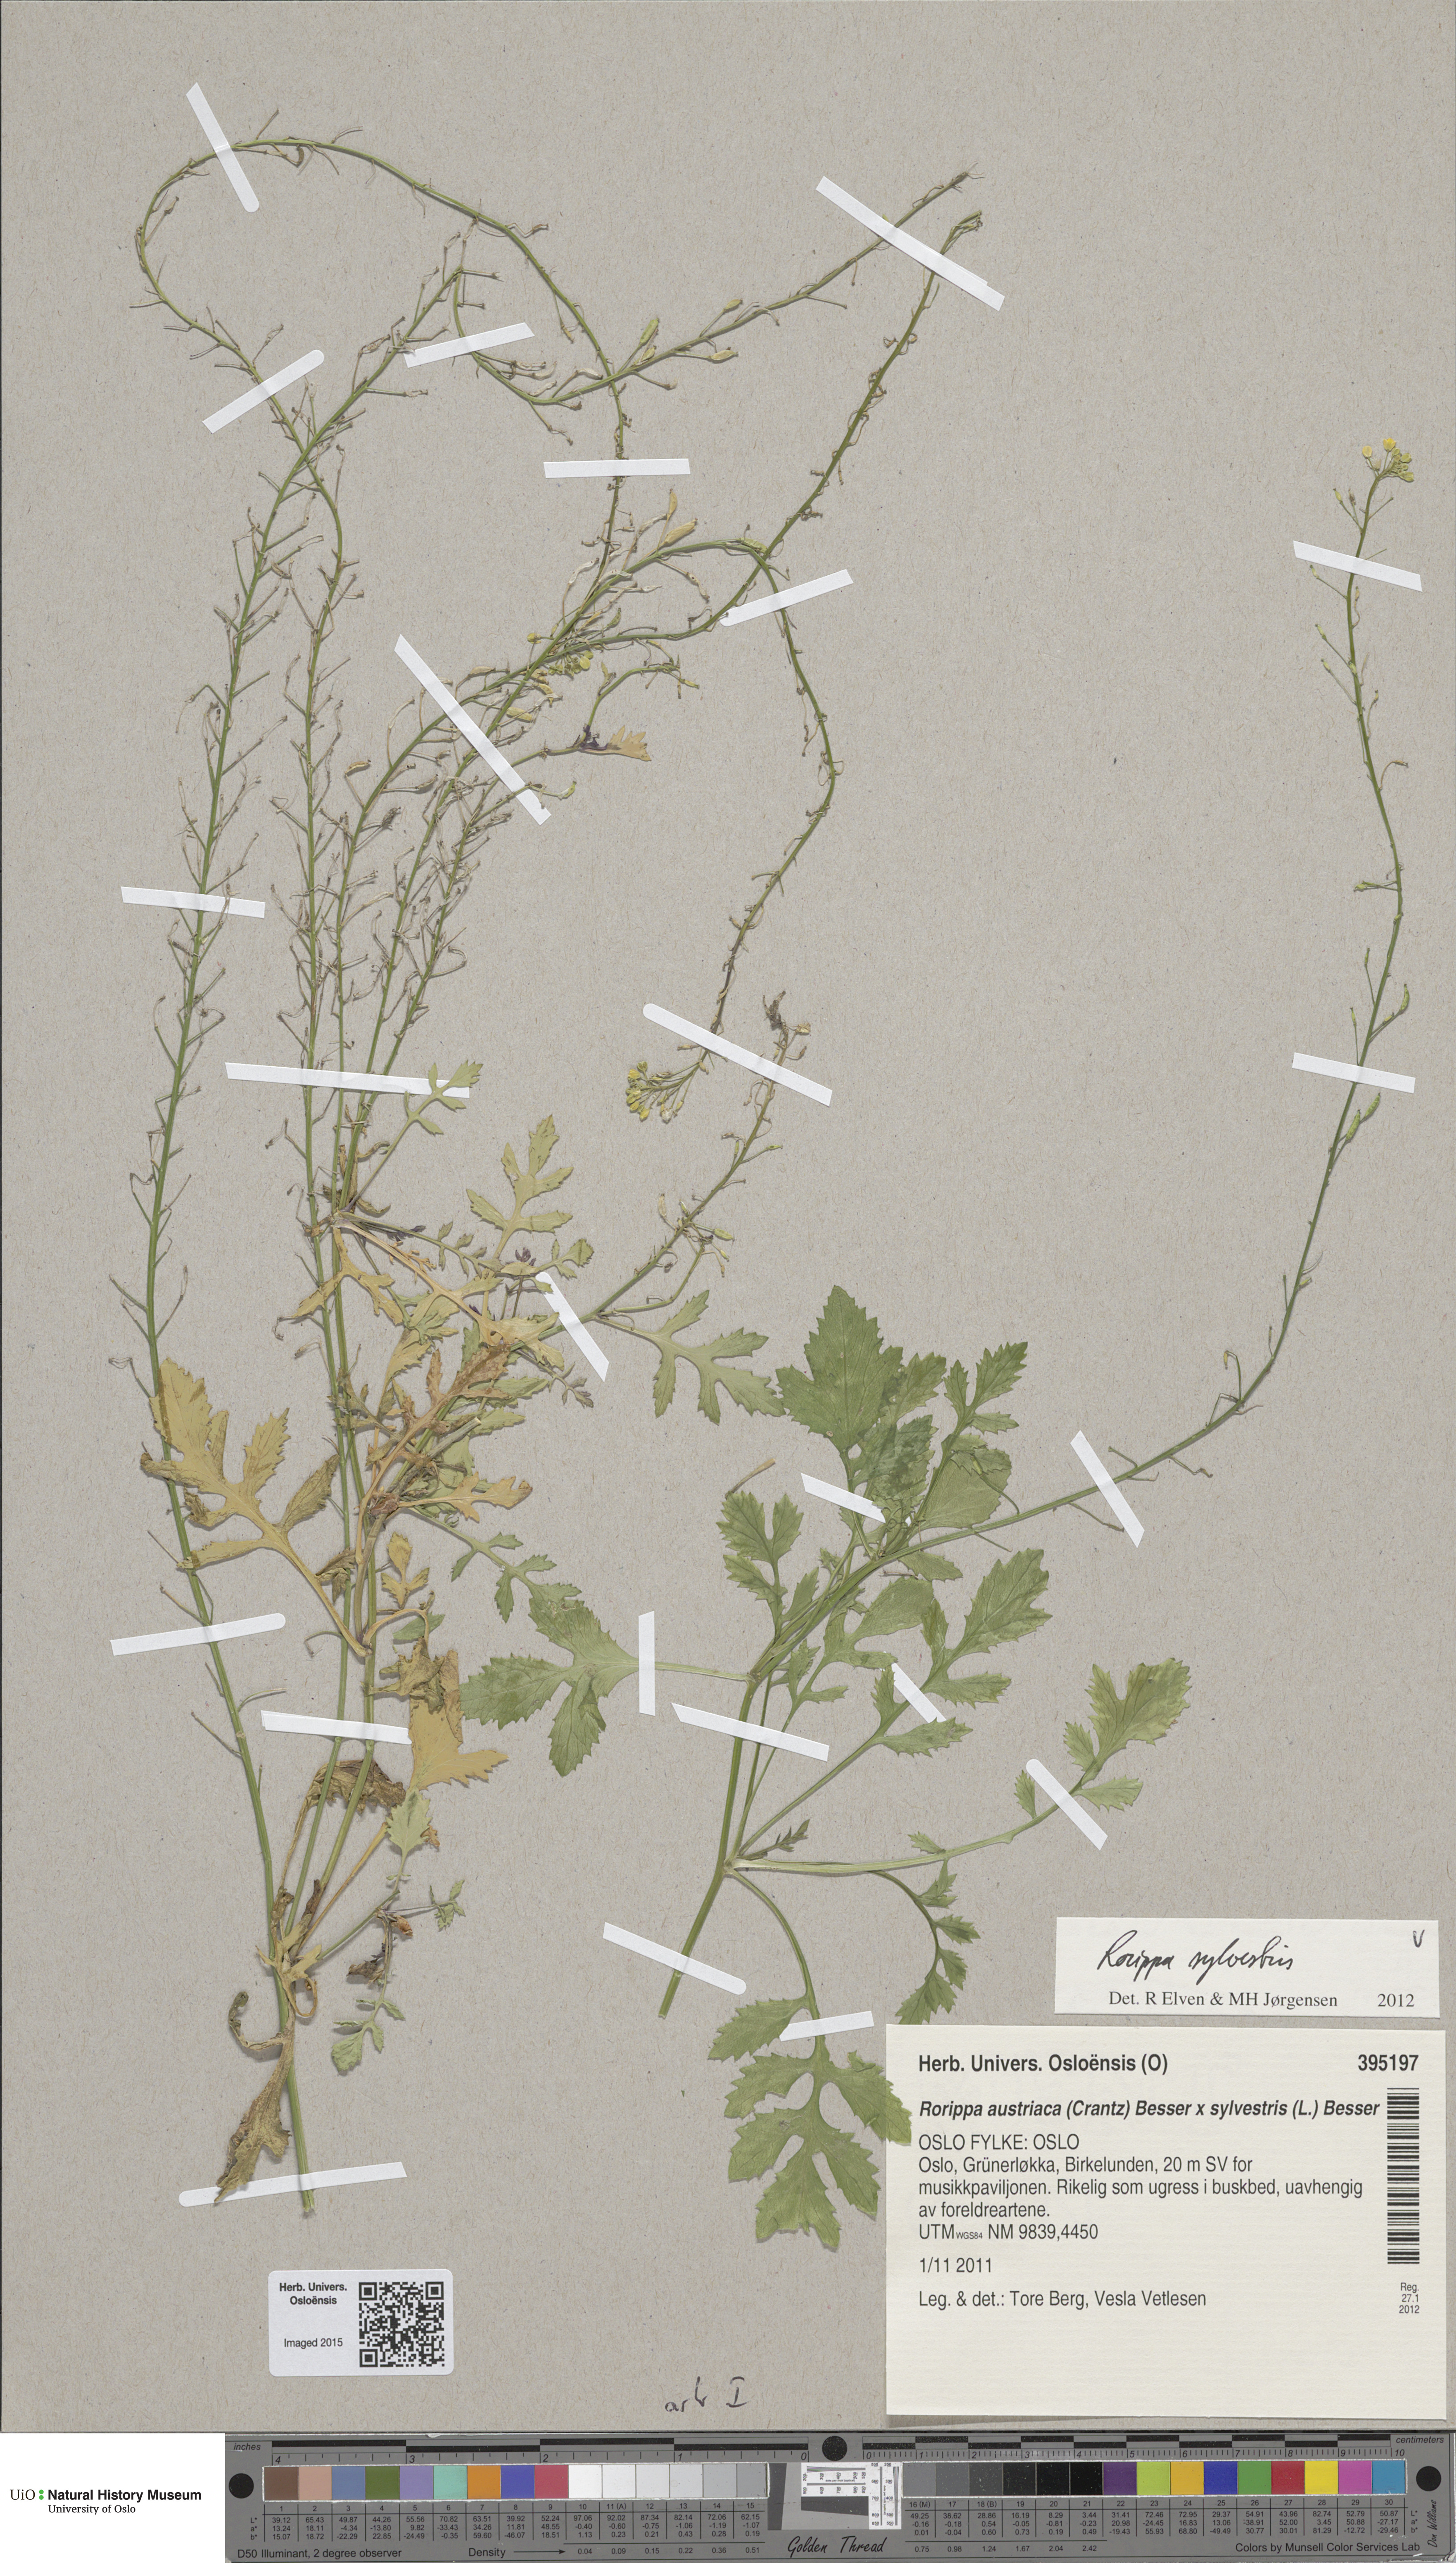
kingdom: Plantae
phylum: Tracheophyta
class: Magnoliopsida
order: Brassicales
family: Brassicaceae
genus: Rorippa
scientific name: Rorippa sylvestris
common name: Creeping yellowcress
